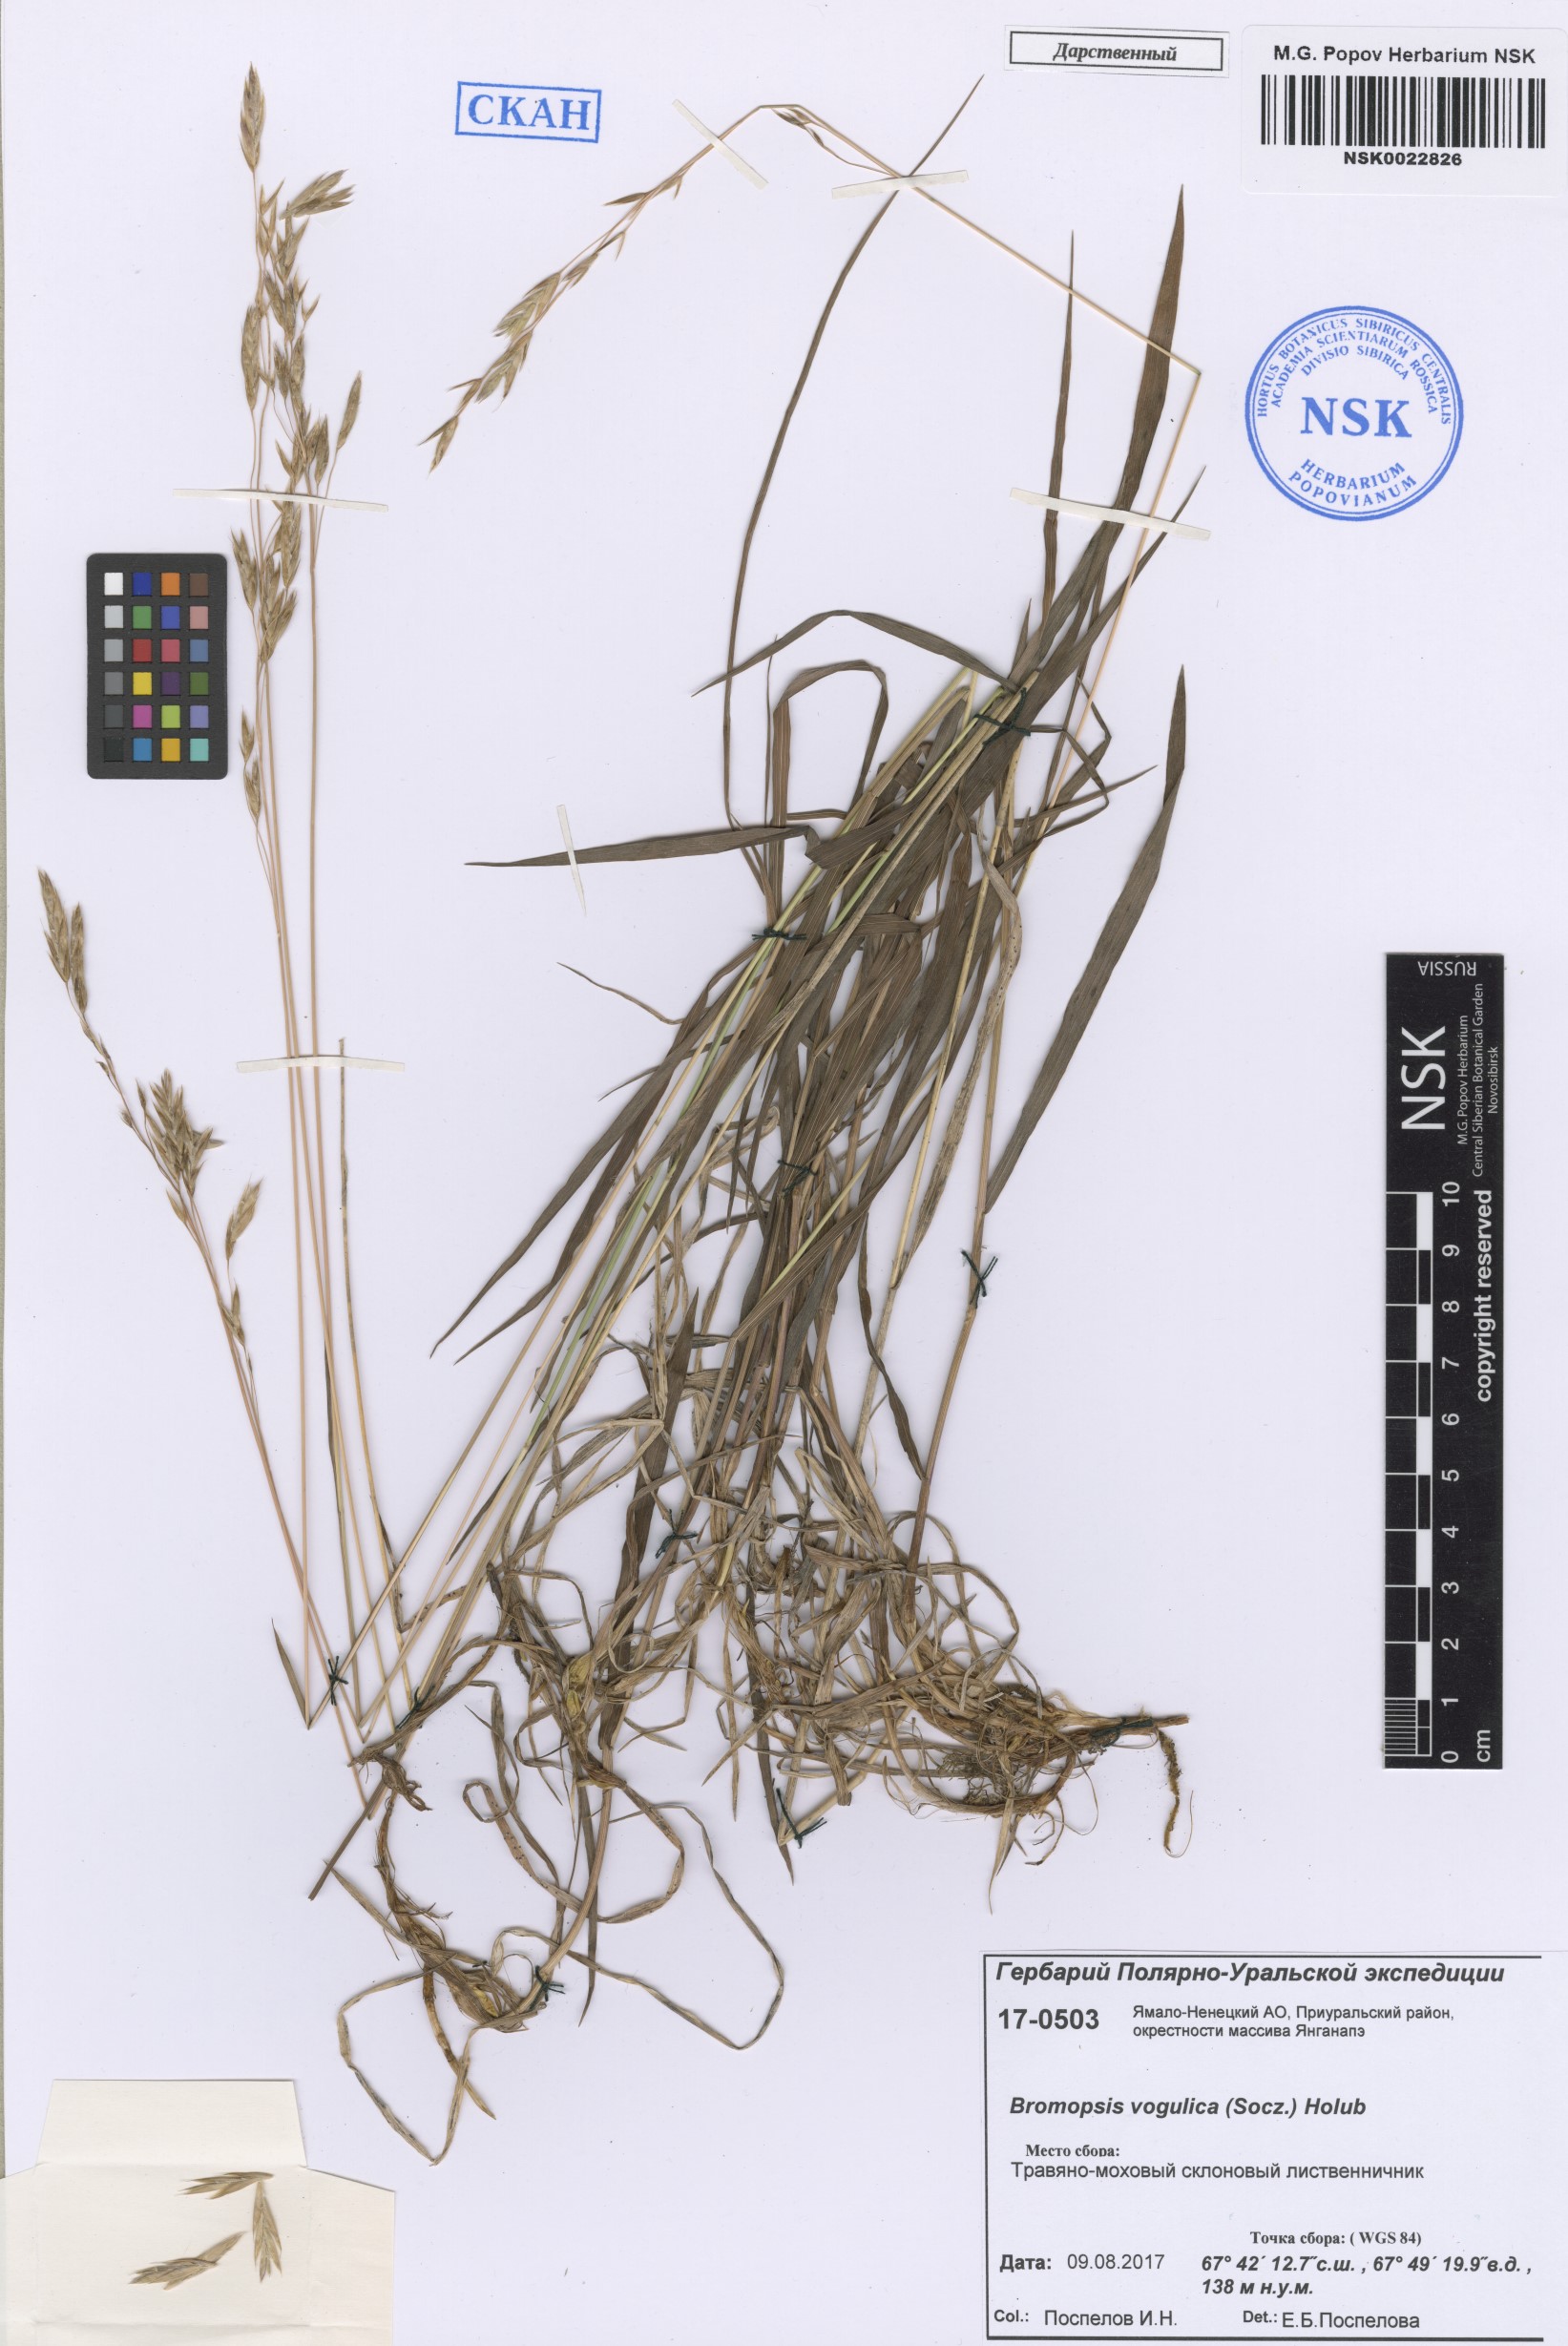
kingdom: Plantae
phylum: Tracheophyta
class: Liliopsida
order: Poales
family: Poaceae
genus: Bromus
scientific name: Bromus pumpellianus
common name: Pumpelly's brome
